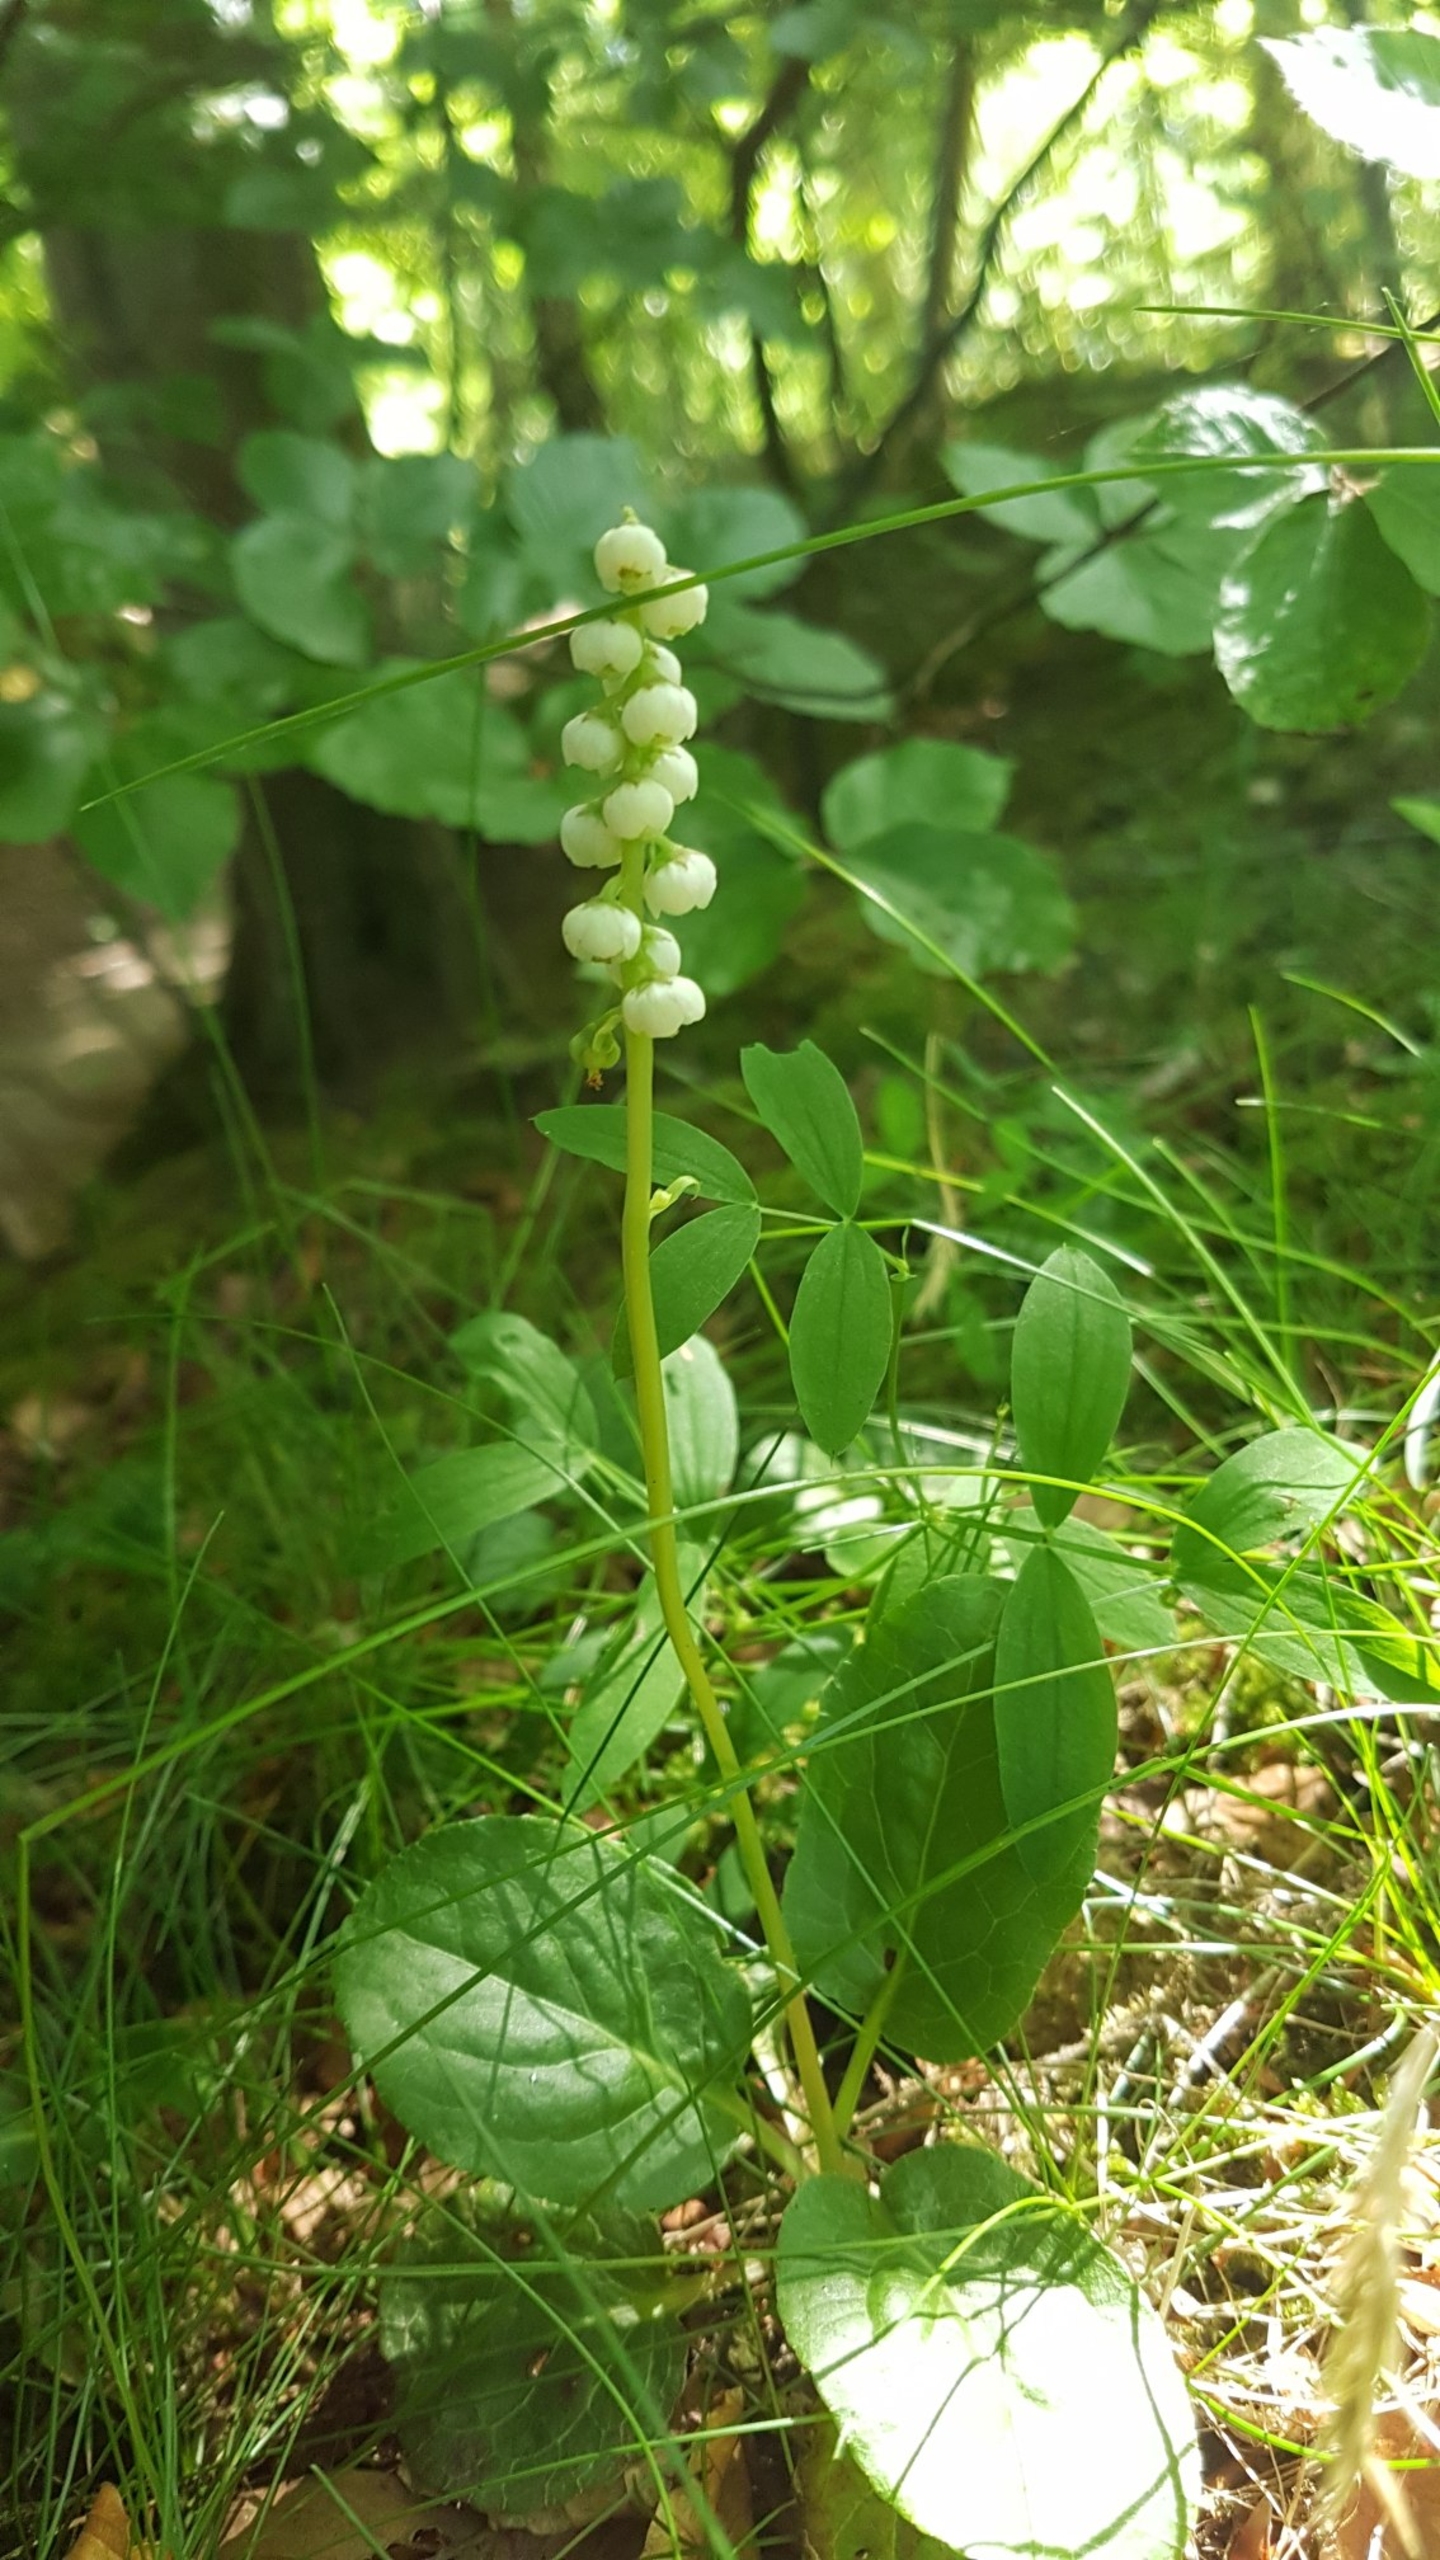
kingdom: Plantae
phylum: Tracheophyta
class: Magnoliopsida
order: Ericales
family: Ericaceae
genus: Pyrola
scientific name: Pyrola minor
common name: Liden vintergrøn
